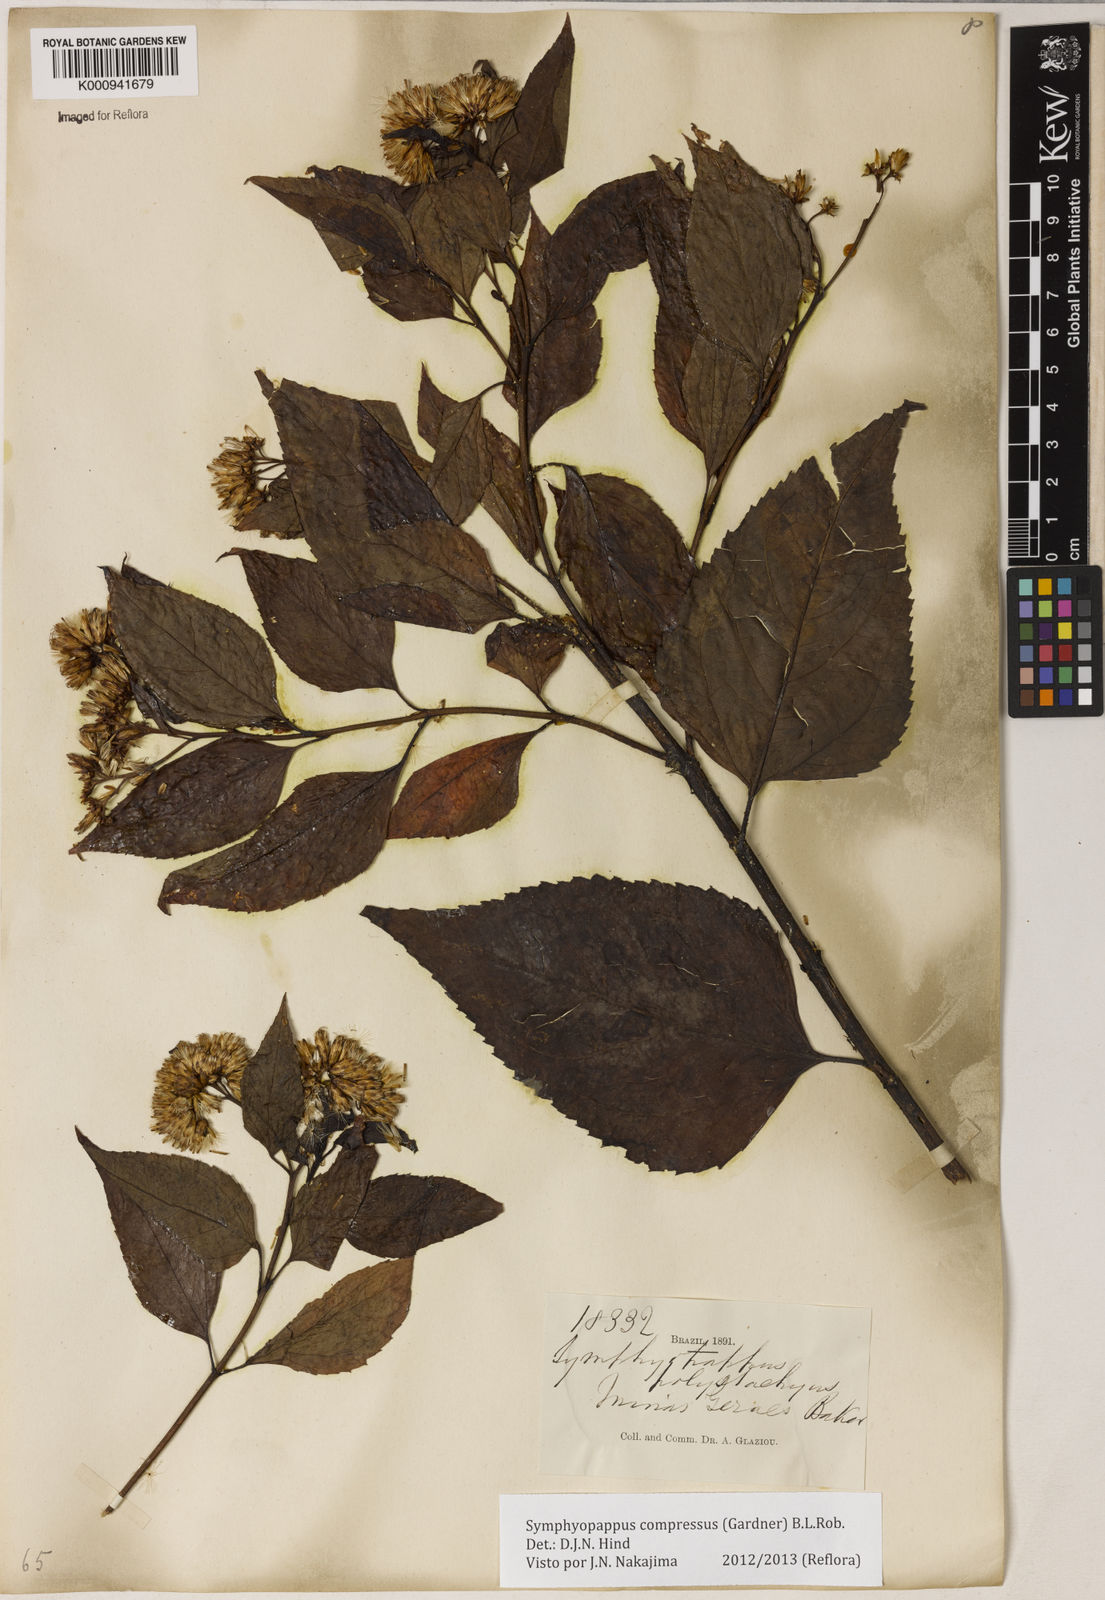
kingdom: Plantae
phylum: Tracheophyta
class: Magnoliopsida
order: Asterales
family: Asteraceae
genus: Symphyopappus
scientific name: Symphyopappus compressus
